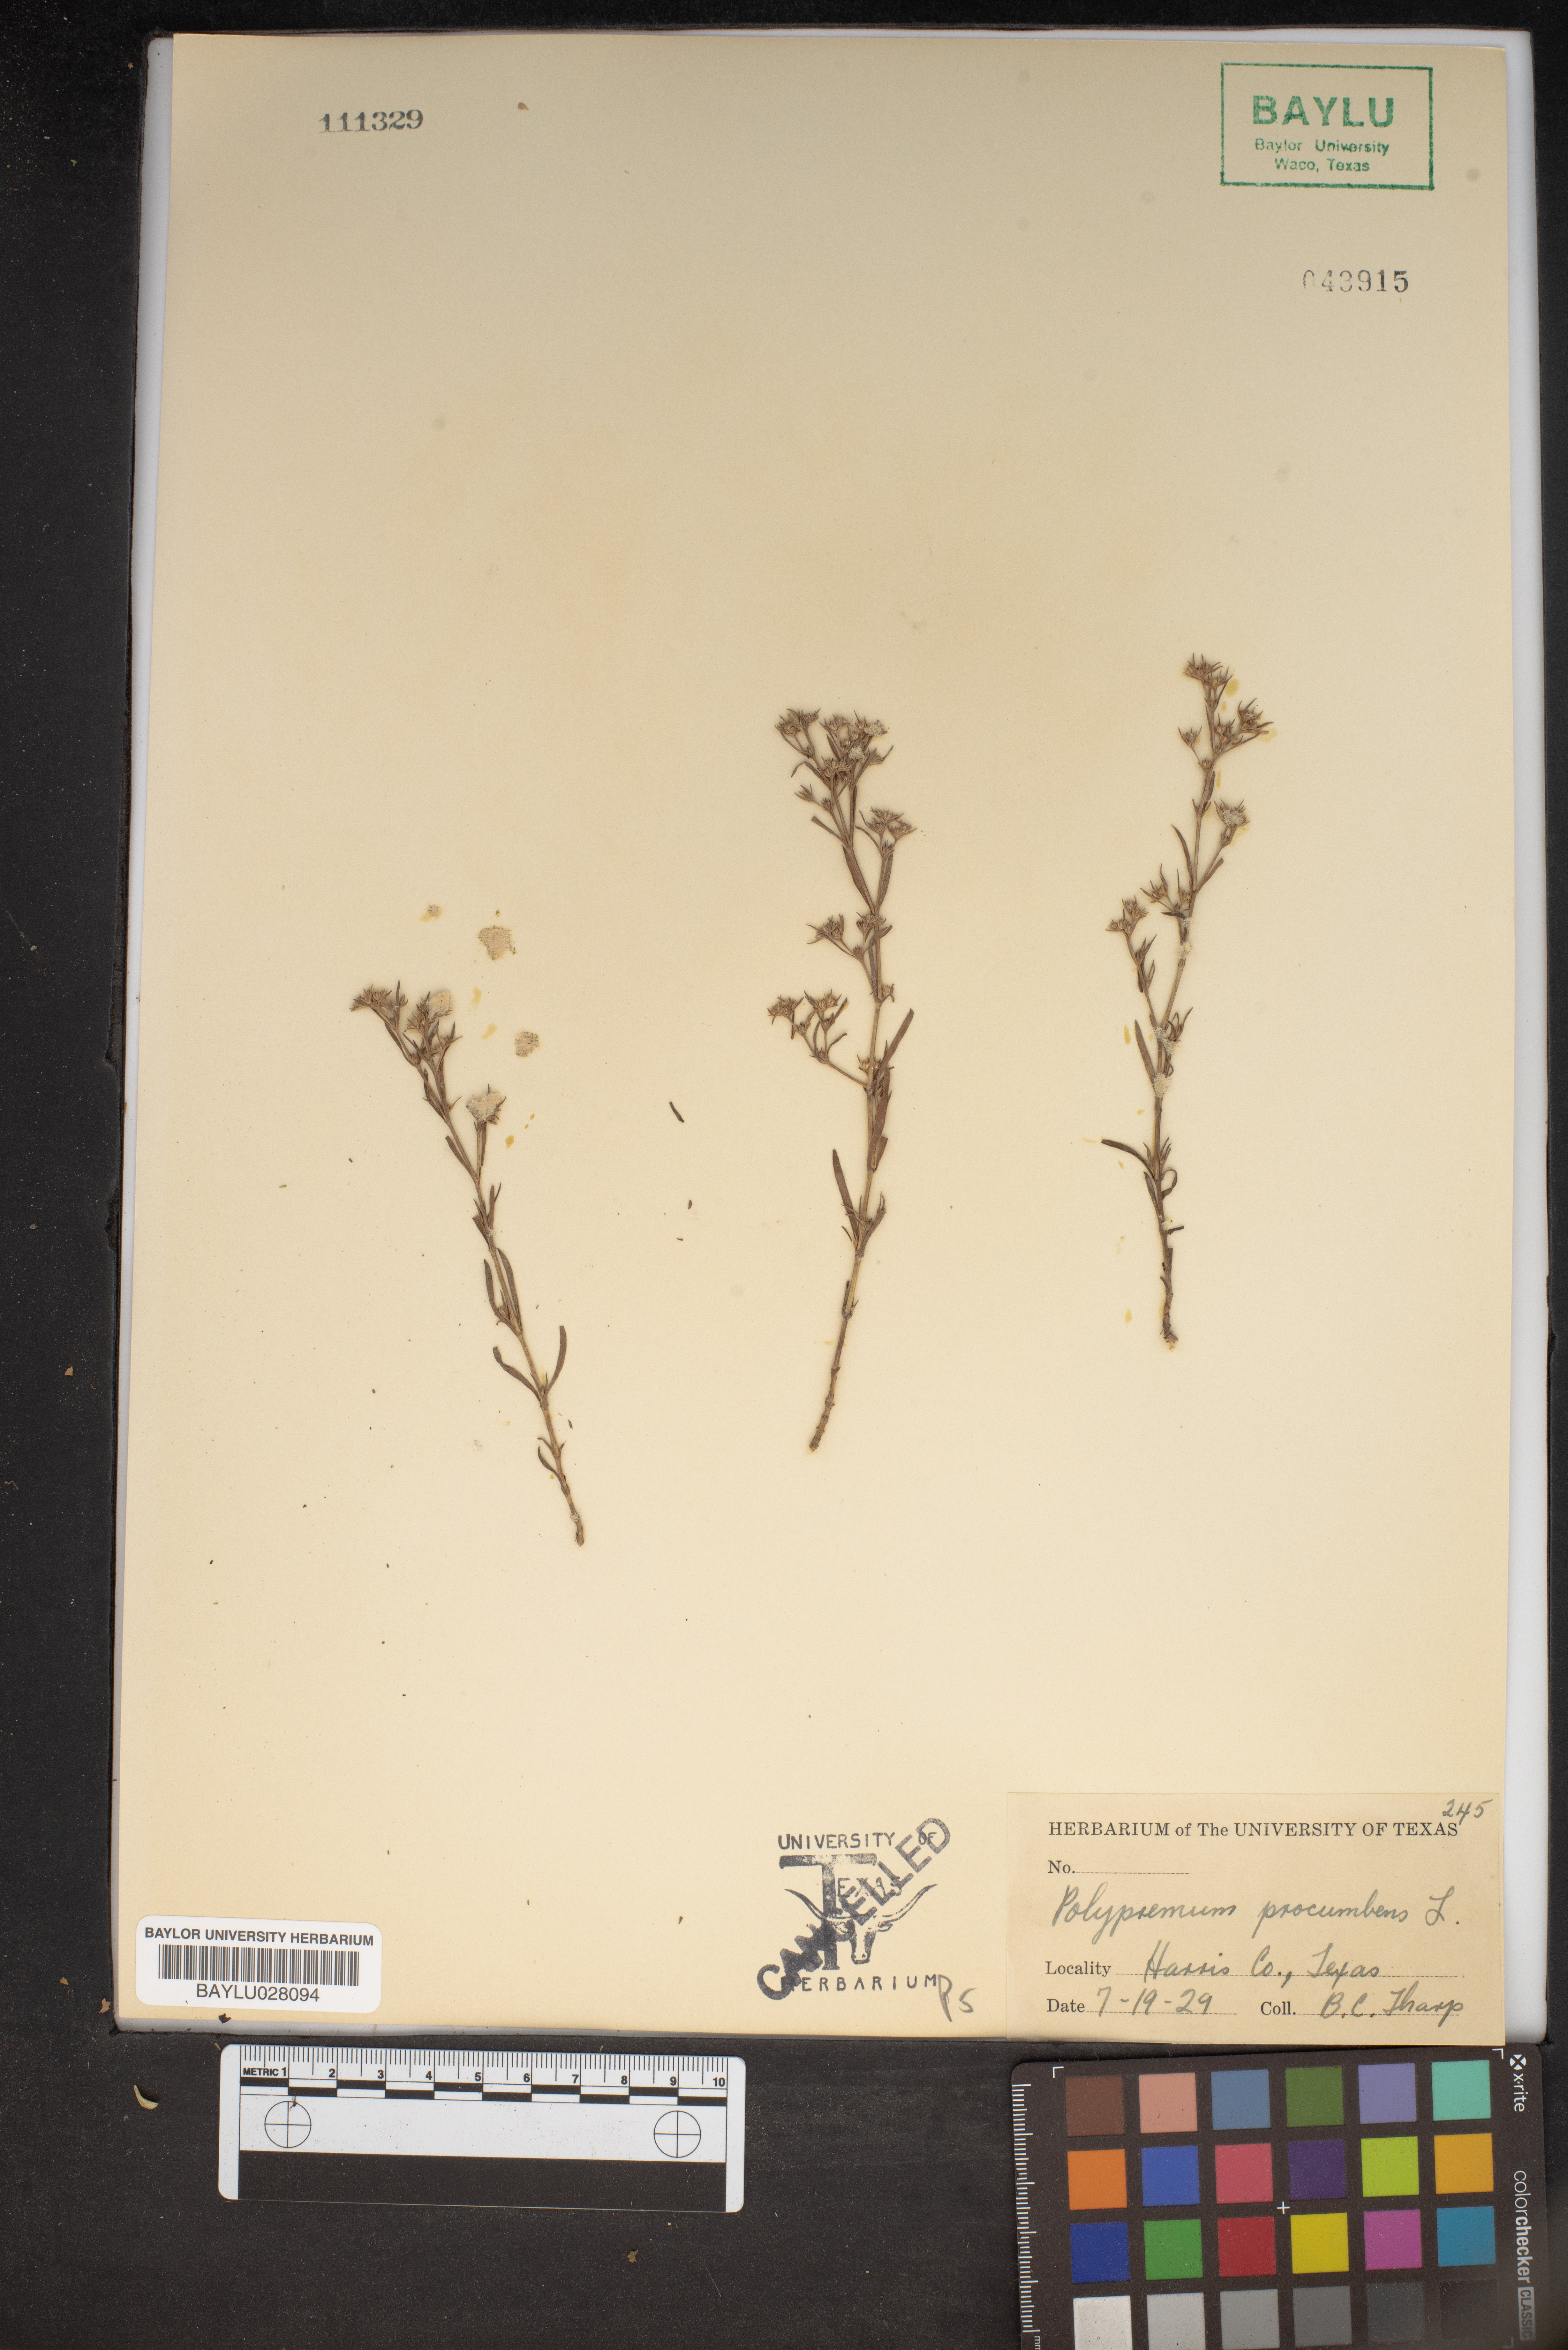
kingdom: Plantae
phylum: Tracheophyta
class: Magnoliopsida
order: Lamiales
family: Tetrachondraceae
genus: Polypremum
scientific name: Polypremum procumbens
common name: Juniper-leaf
